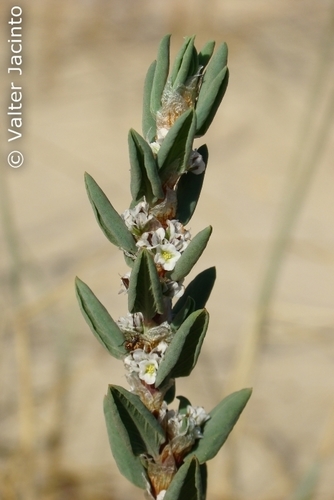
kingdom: Plantae
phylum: Tracheophyta
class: Magnoliopsida
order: Caryophyllales
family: Polygonaceae
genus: Polygonum
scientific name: Polygonum
